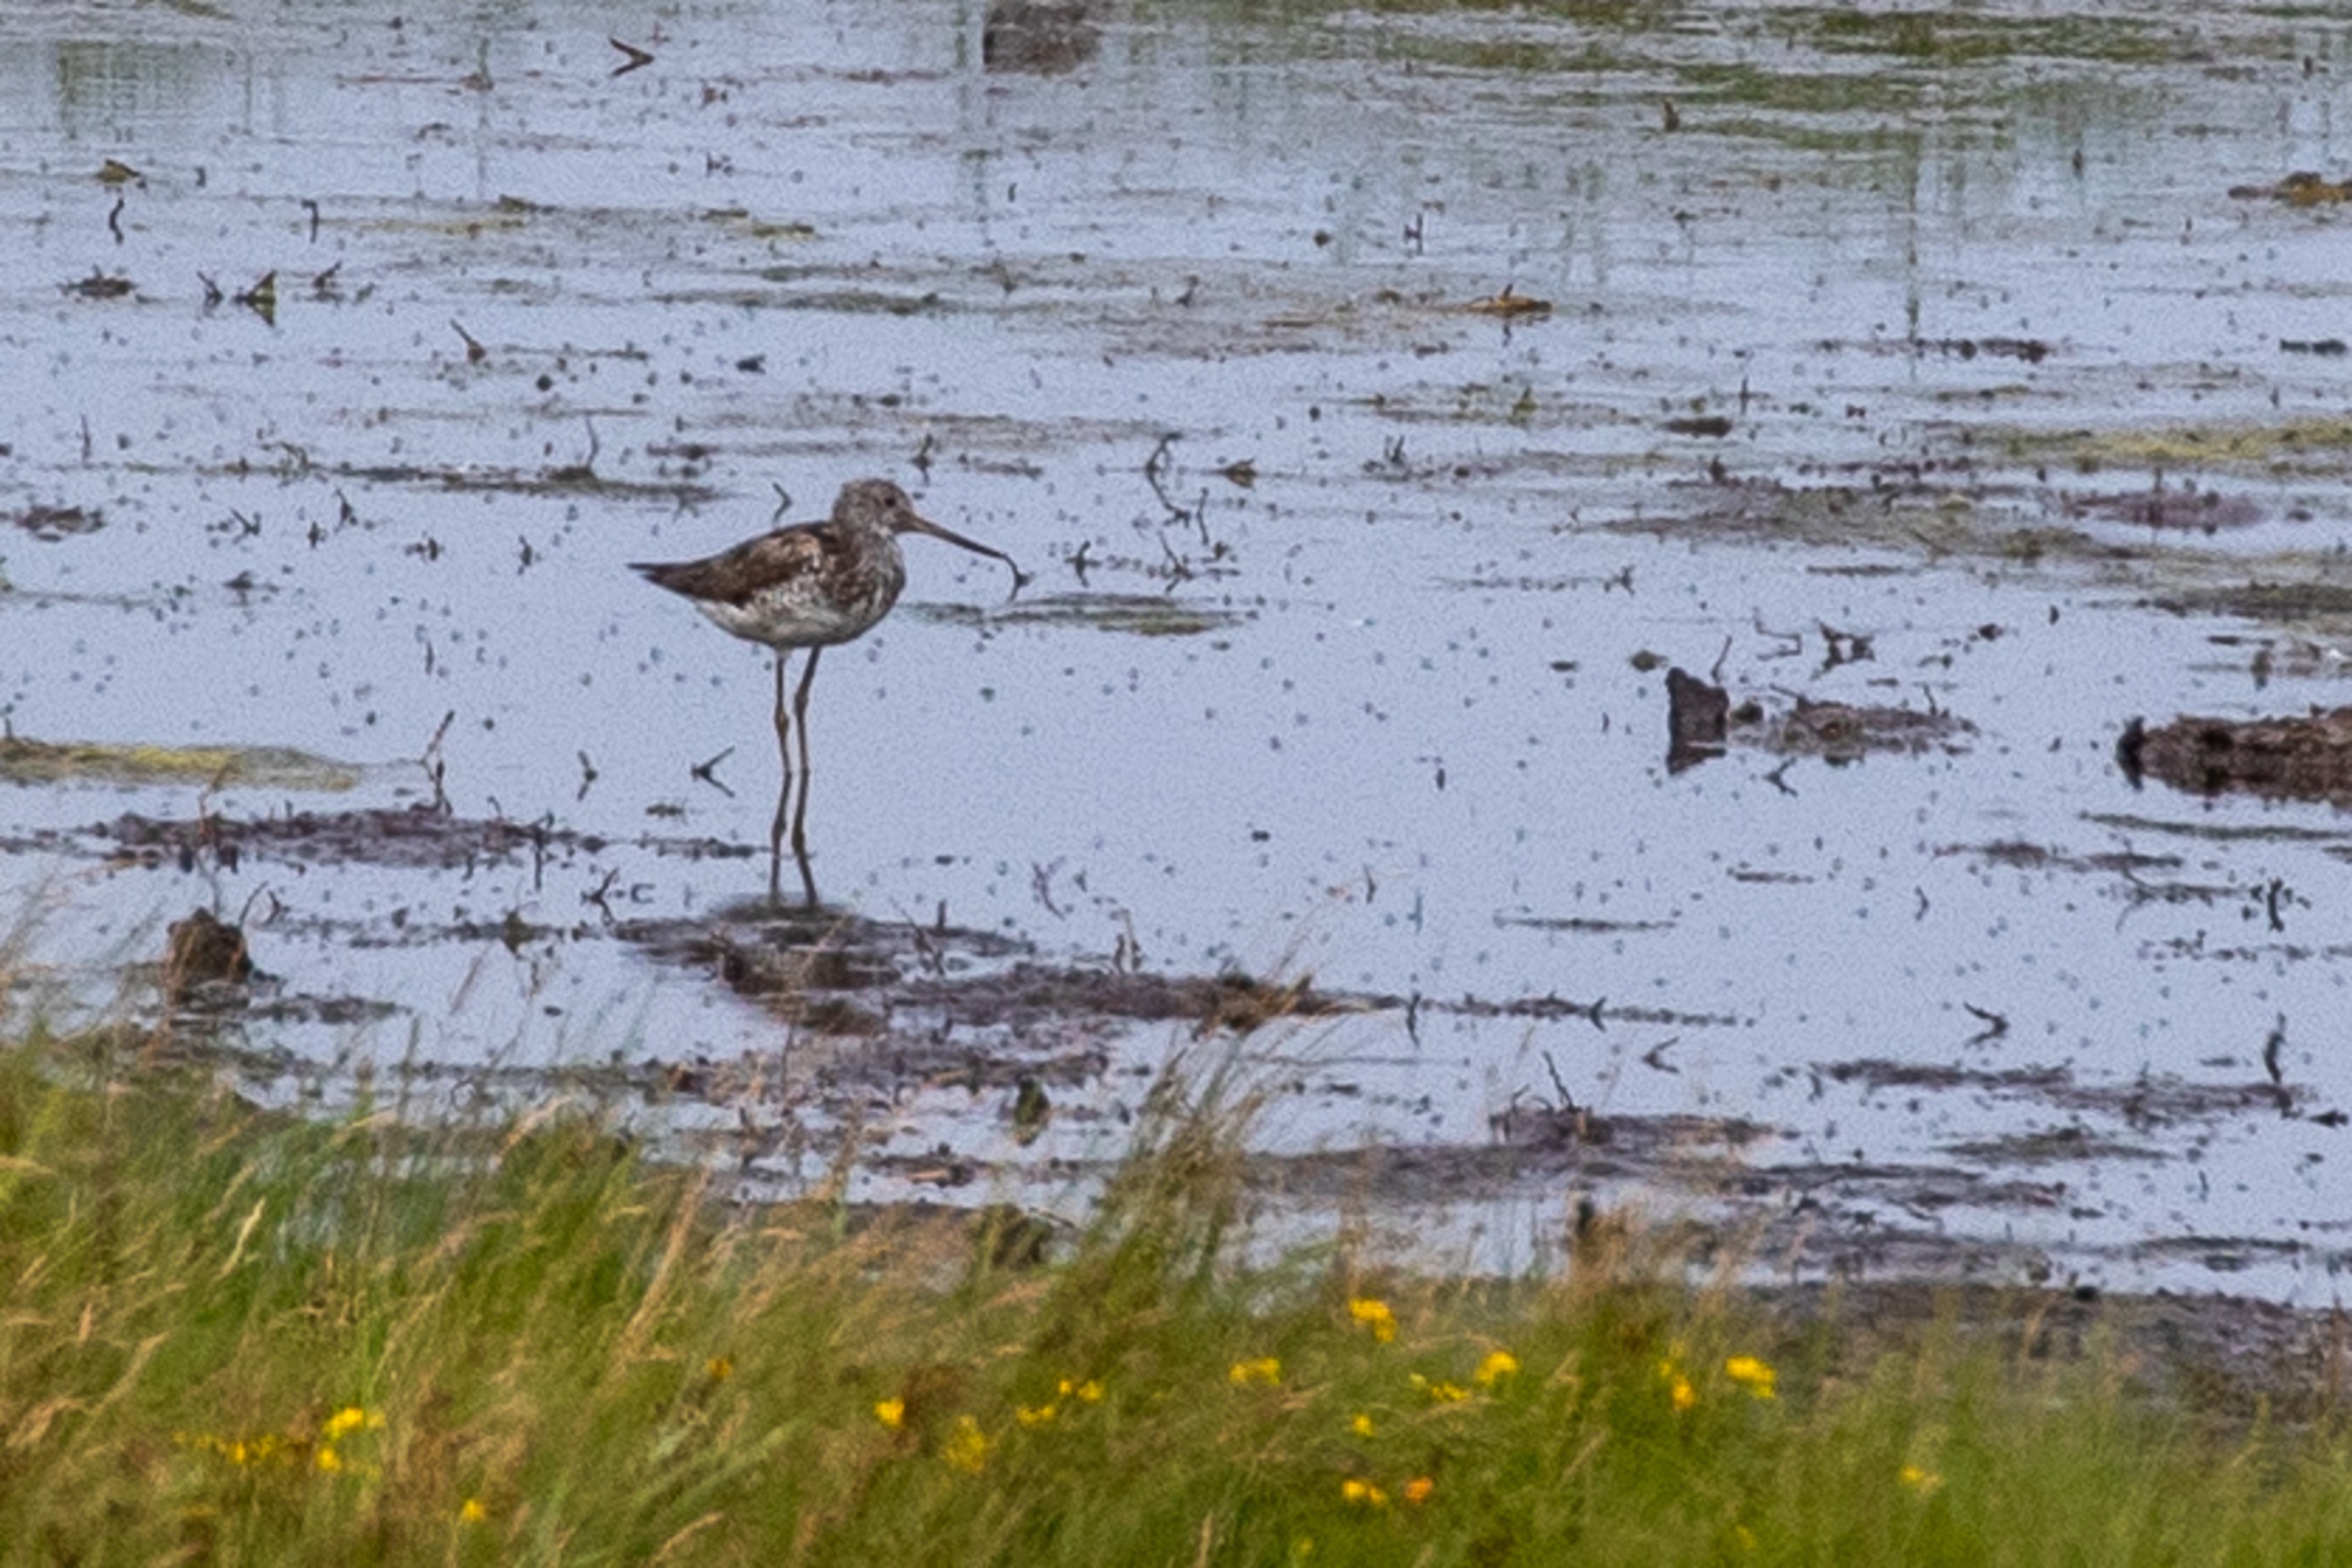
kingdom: Animalia
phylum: Chordata
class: Aves
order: Charadriiformes
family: Scolopacidae
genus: Tringa
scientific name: Tringa nebularia
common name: Hvidklire
